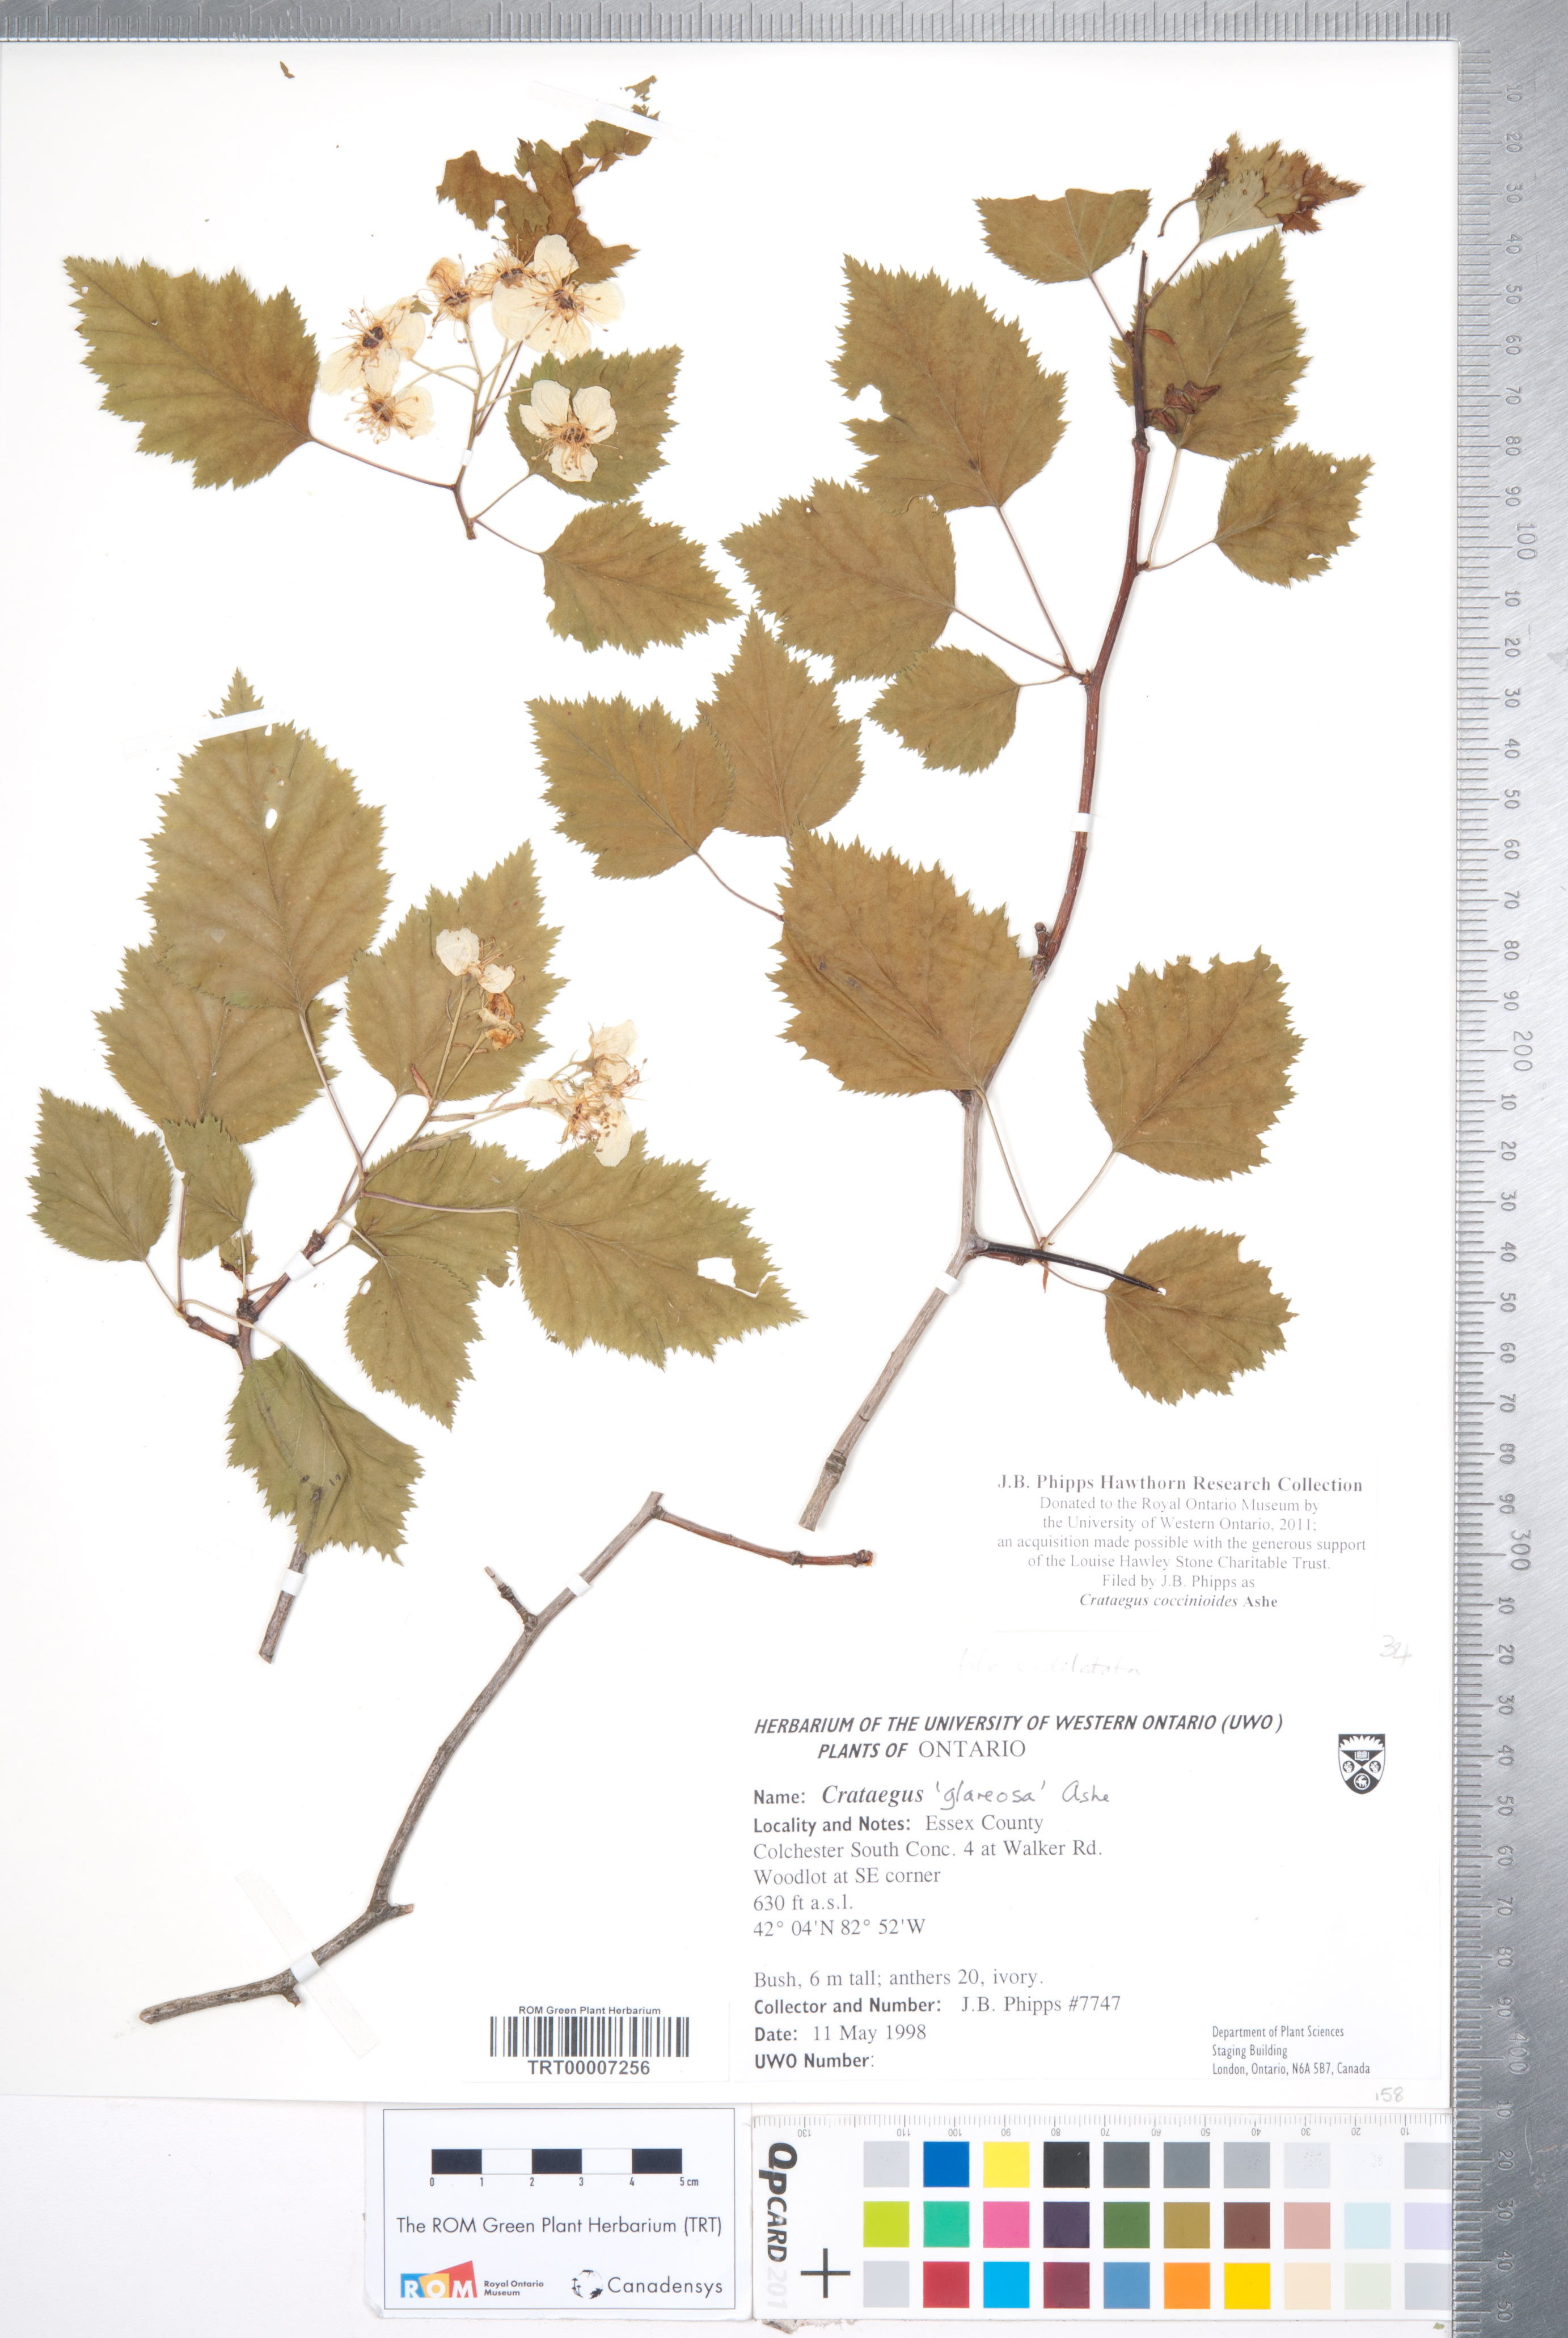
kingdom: Plantae
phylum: Tracheophyta
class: Magnoliopsida
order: Rosales
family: Rosaceae
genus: Crataegus
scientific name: Crataegus coccinioides
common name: Large-flowered cockspurthorn
